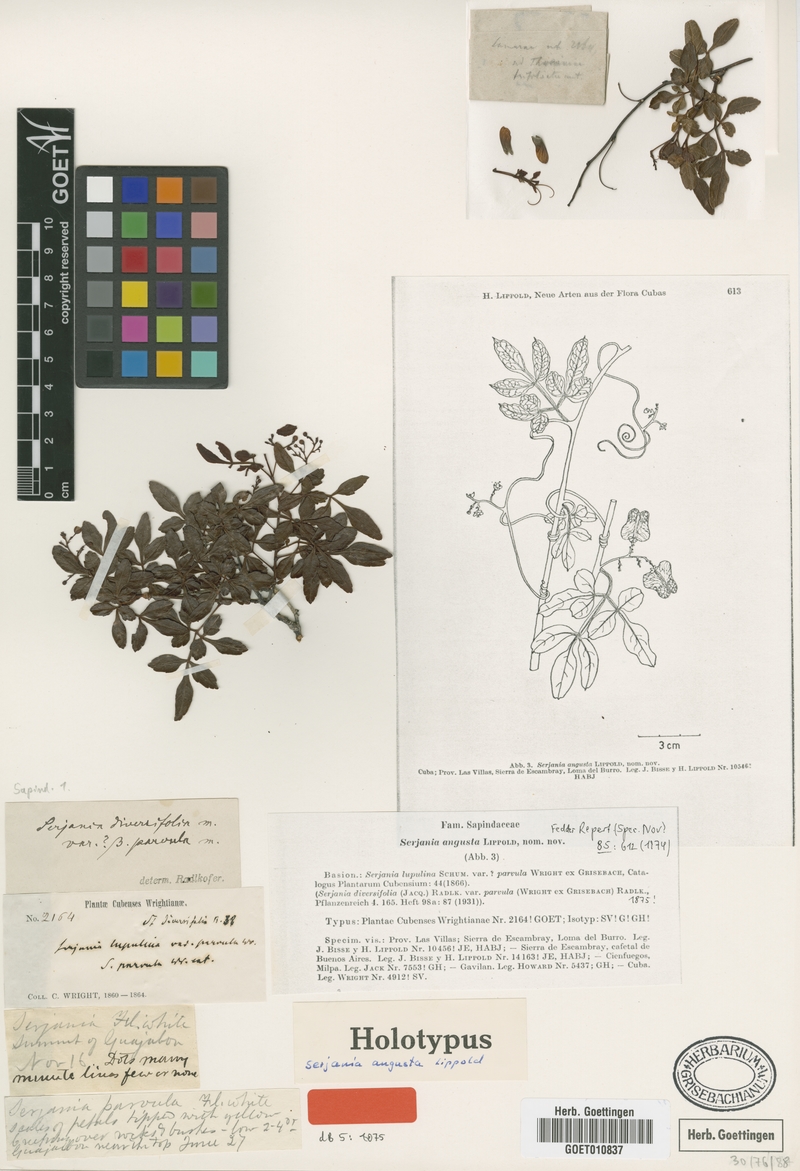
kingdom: Plantae
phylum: Tracheophyta
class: Magnoliopsida
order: Sapindales
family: Sapindaceae
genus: Serjania
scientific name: Serjania diversifolia
